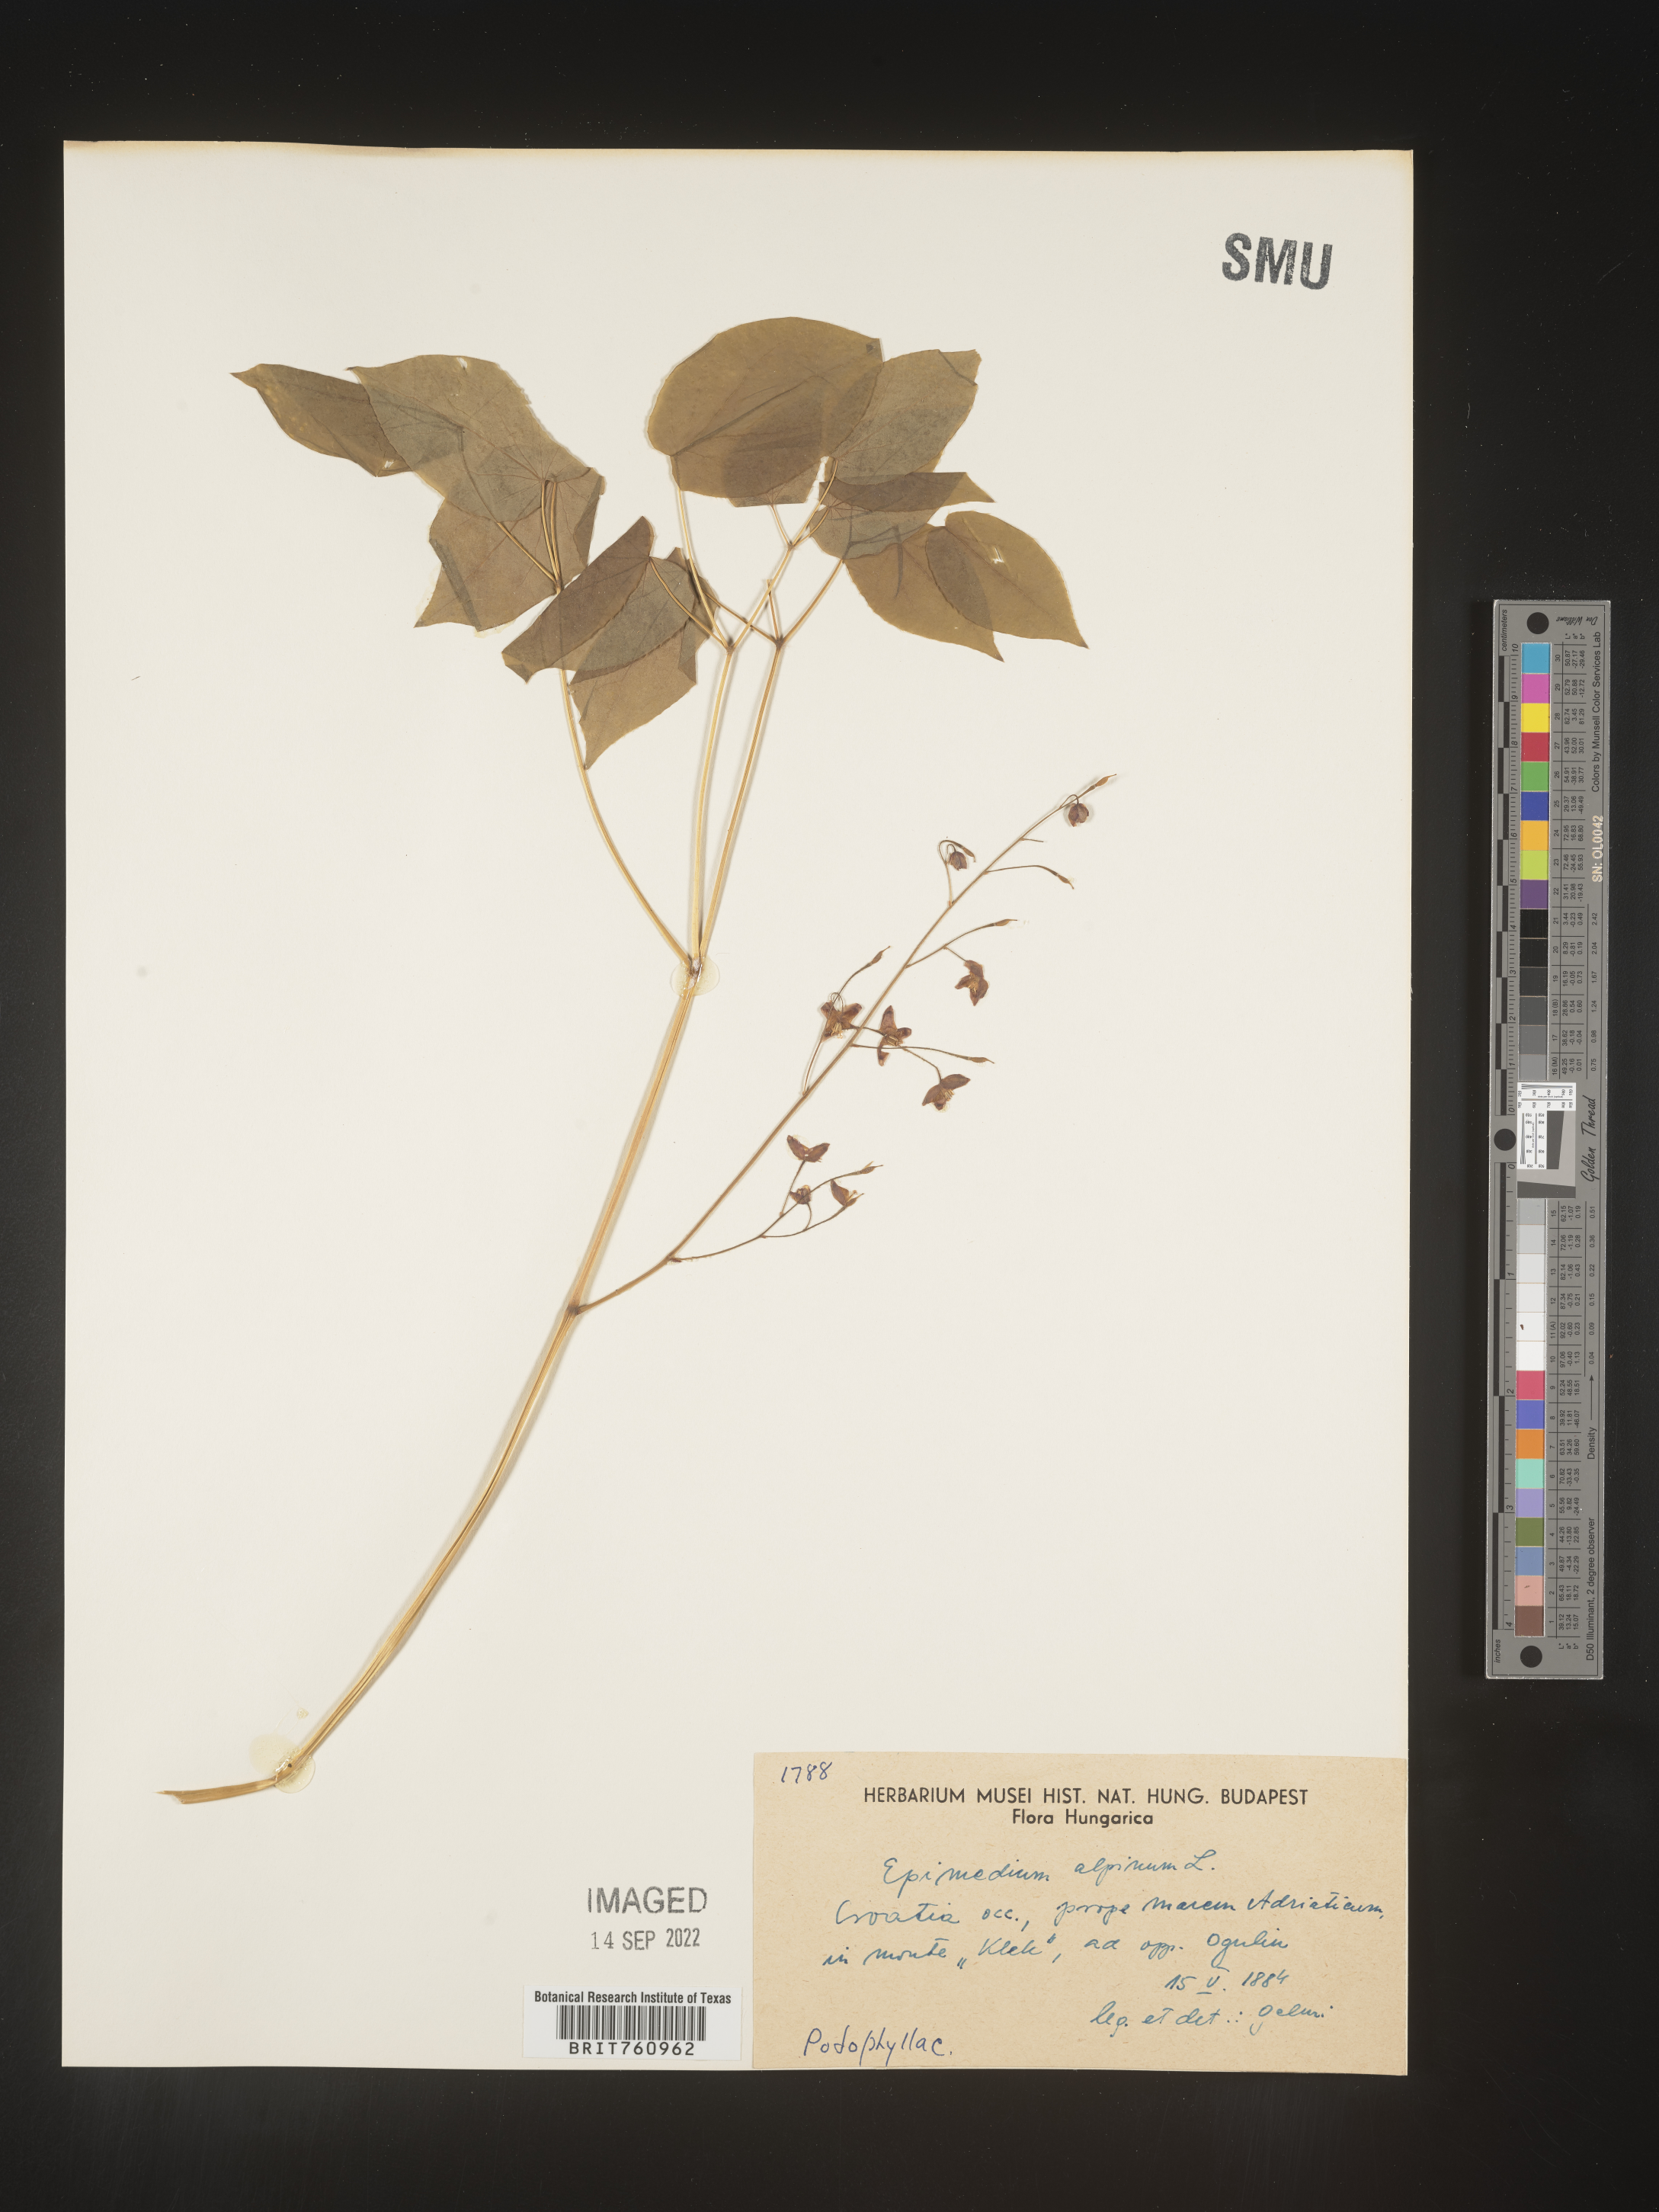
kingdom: Plantae
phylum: Tracheophyta
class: Magnoliopsida
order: Ranunculales
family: Berberidaceae
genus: Epimedium
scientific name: Epimedium
